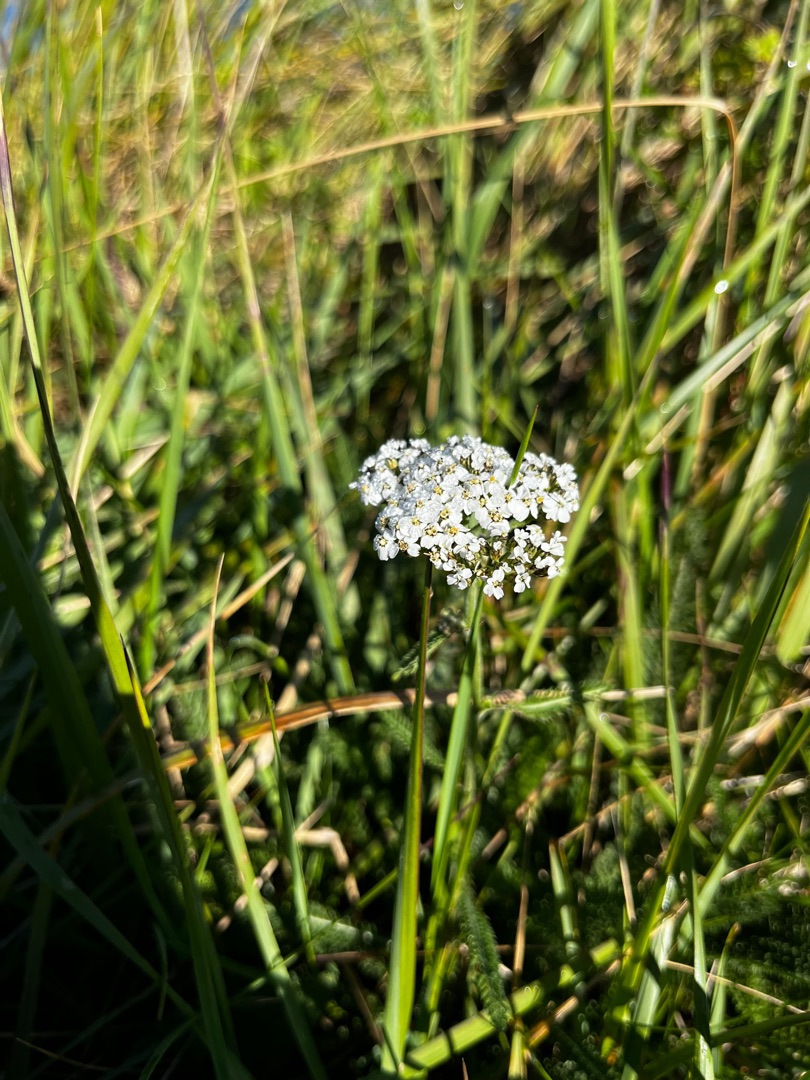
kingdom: Plantae
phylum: Tracheophyta
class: Magnoliopsida
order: Asterales
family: Asteraceae
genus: Achillea
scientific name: Achillea millefolium
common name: Almindelig røllike
